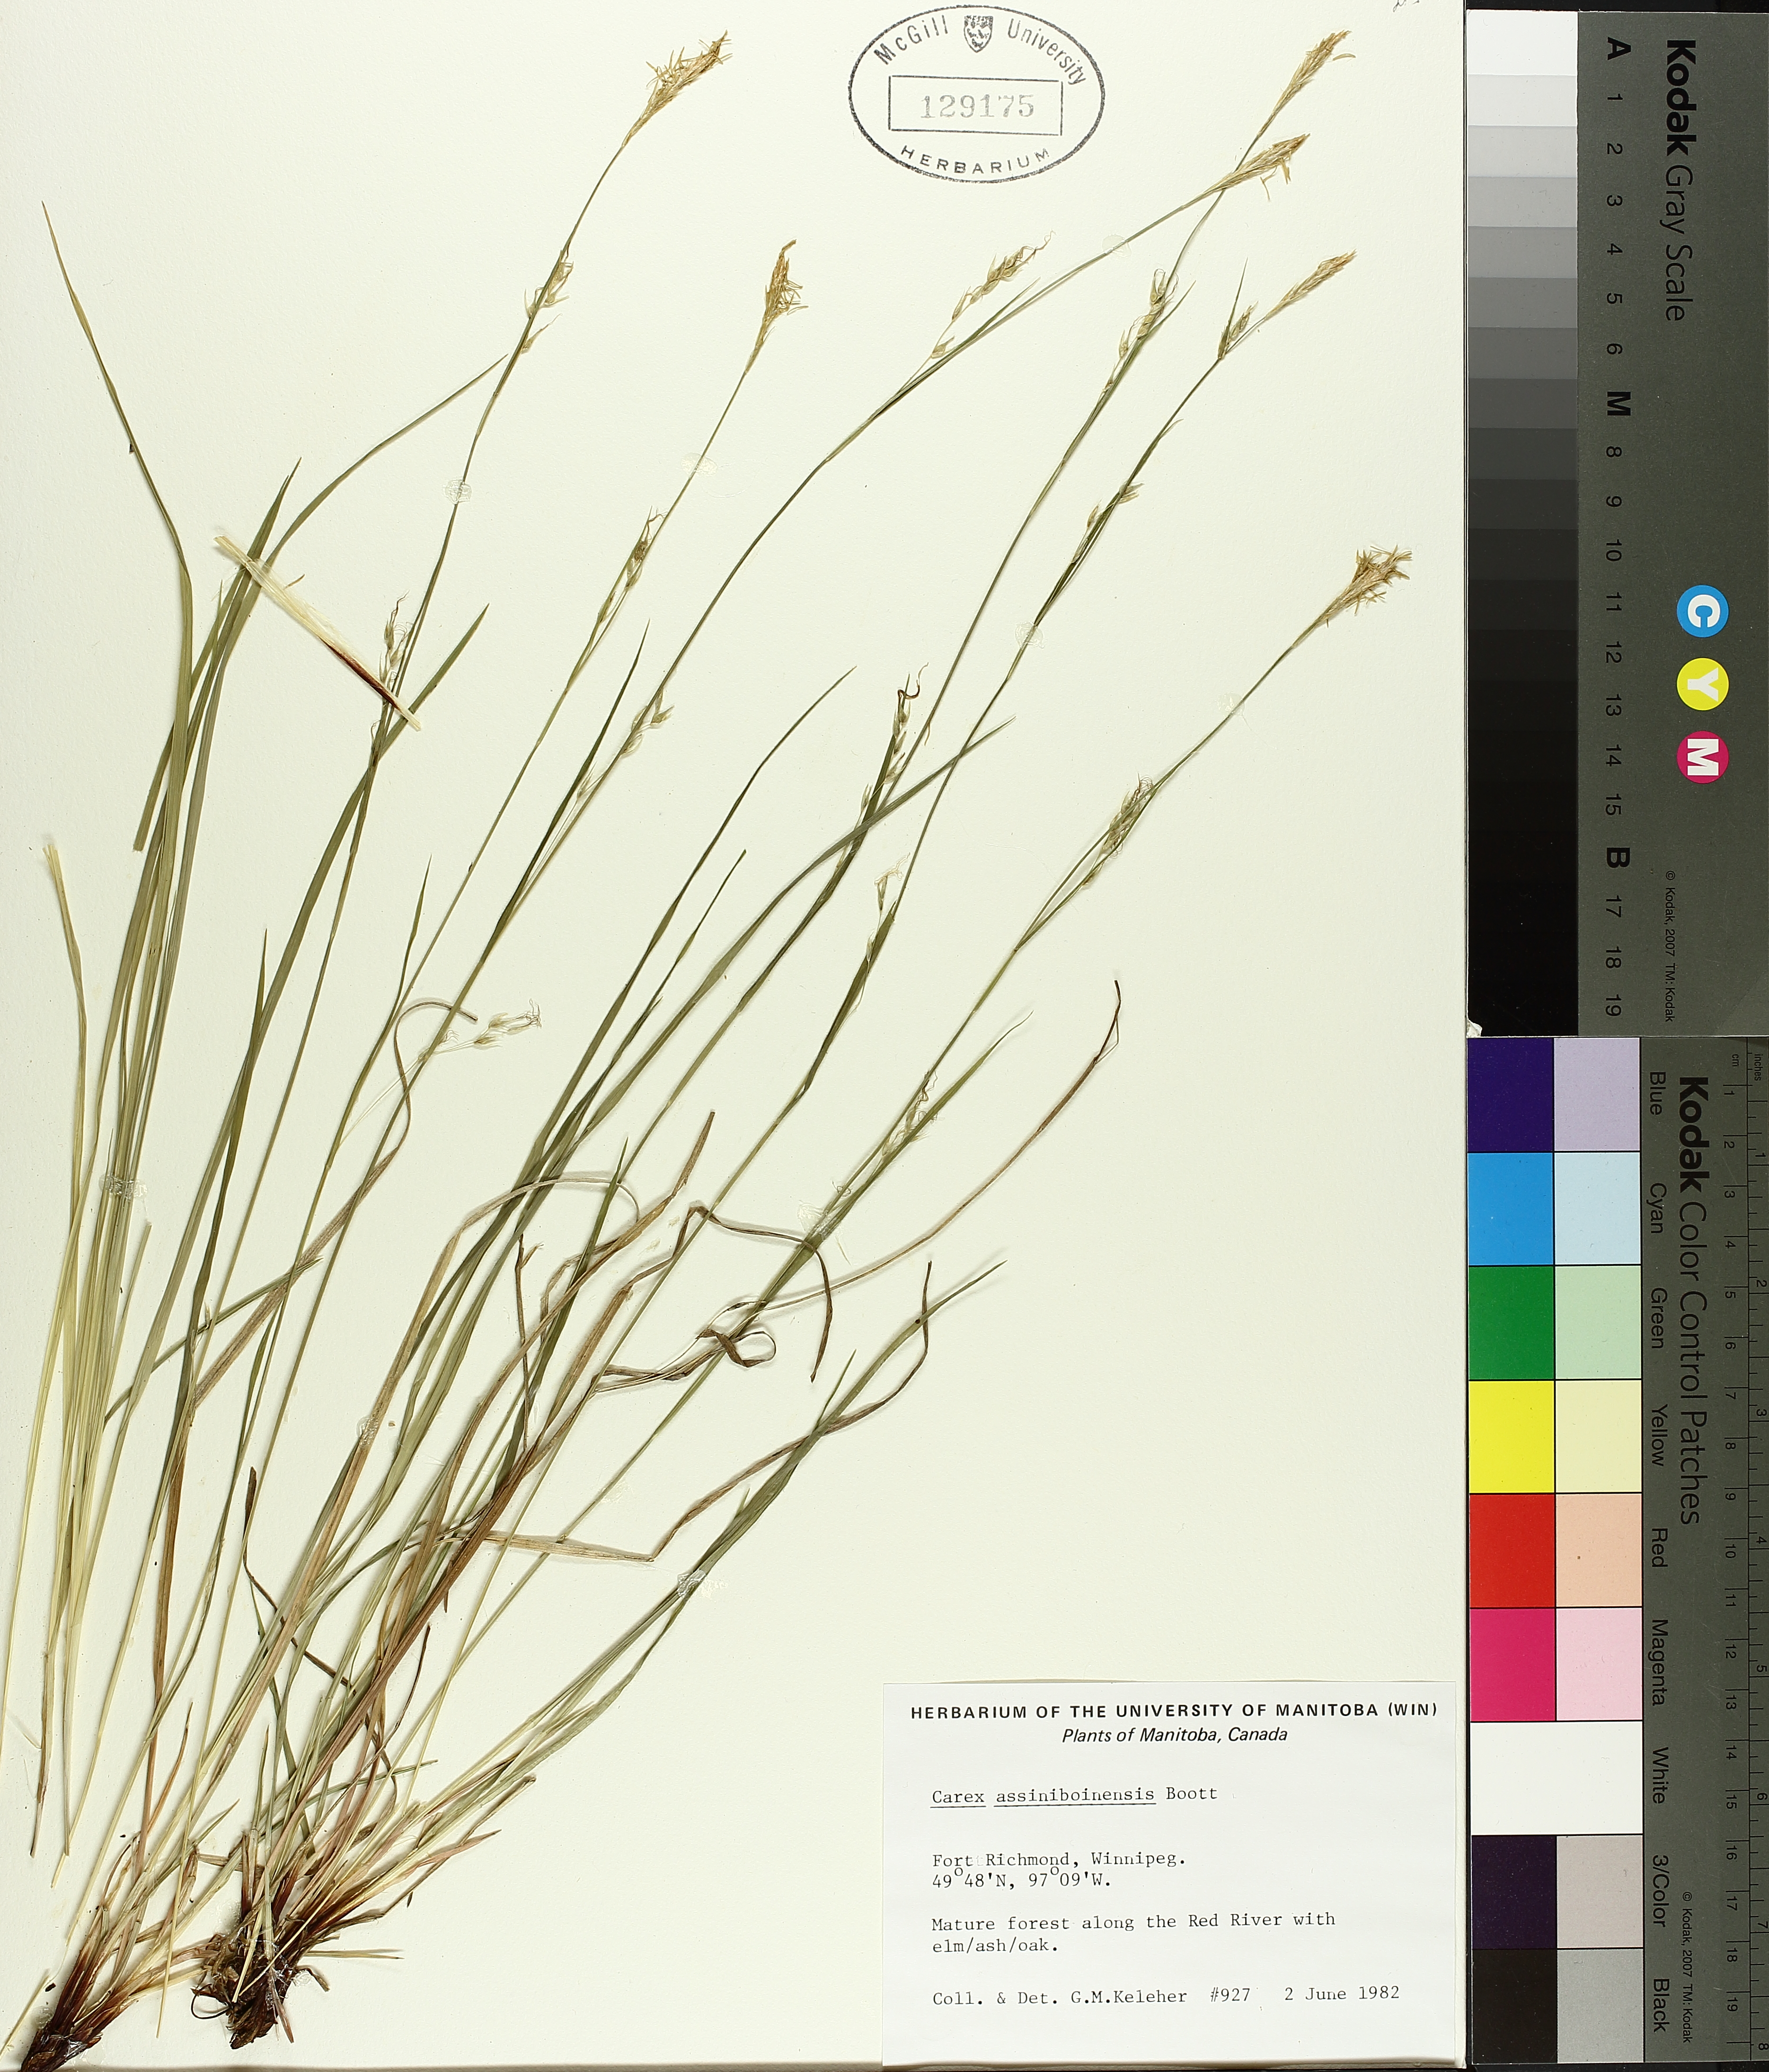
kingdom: Plantae
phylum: Tracheophyta
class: Liliopsida
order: Poales
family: Cyperaceae
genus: Carex
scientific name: Carex assiniboinensis
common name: Assiniboia sedge
